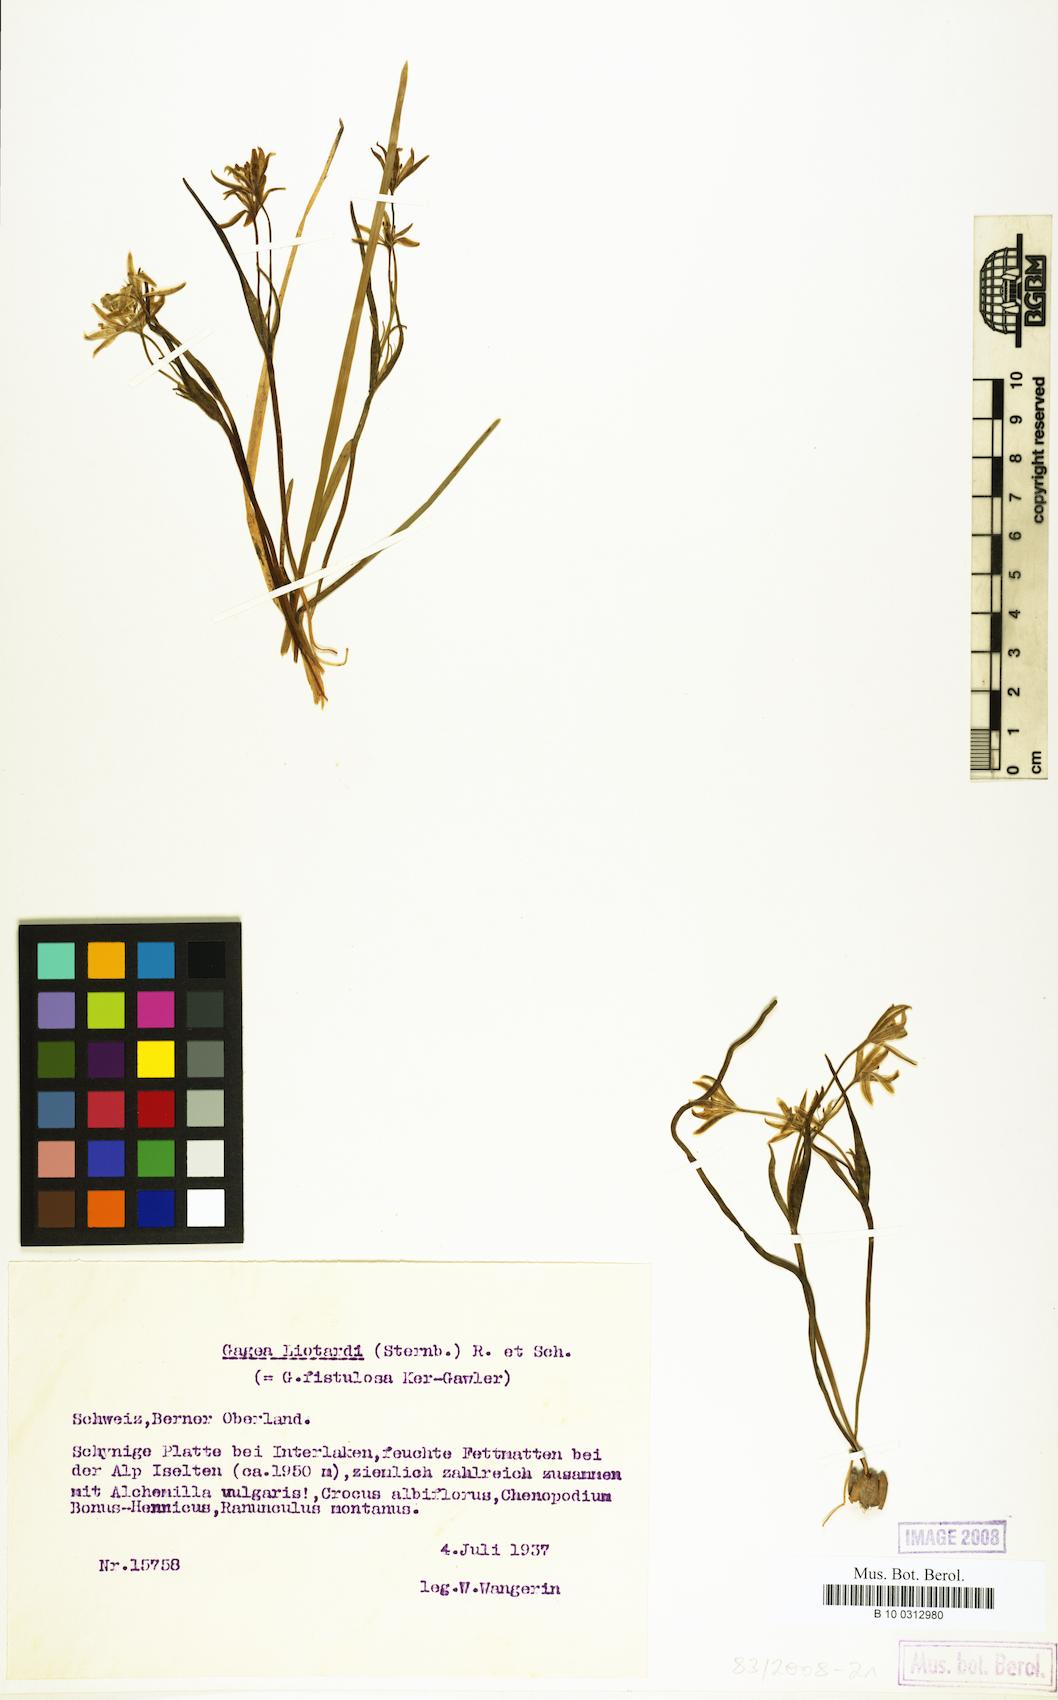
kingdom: Plantae
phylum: Tracheophyta
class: Liliopsida
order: Liliales
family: Liliaceae
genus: Gagea
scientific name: Gagea
